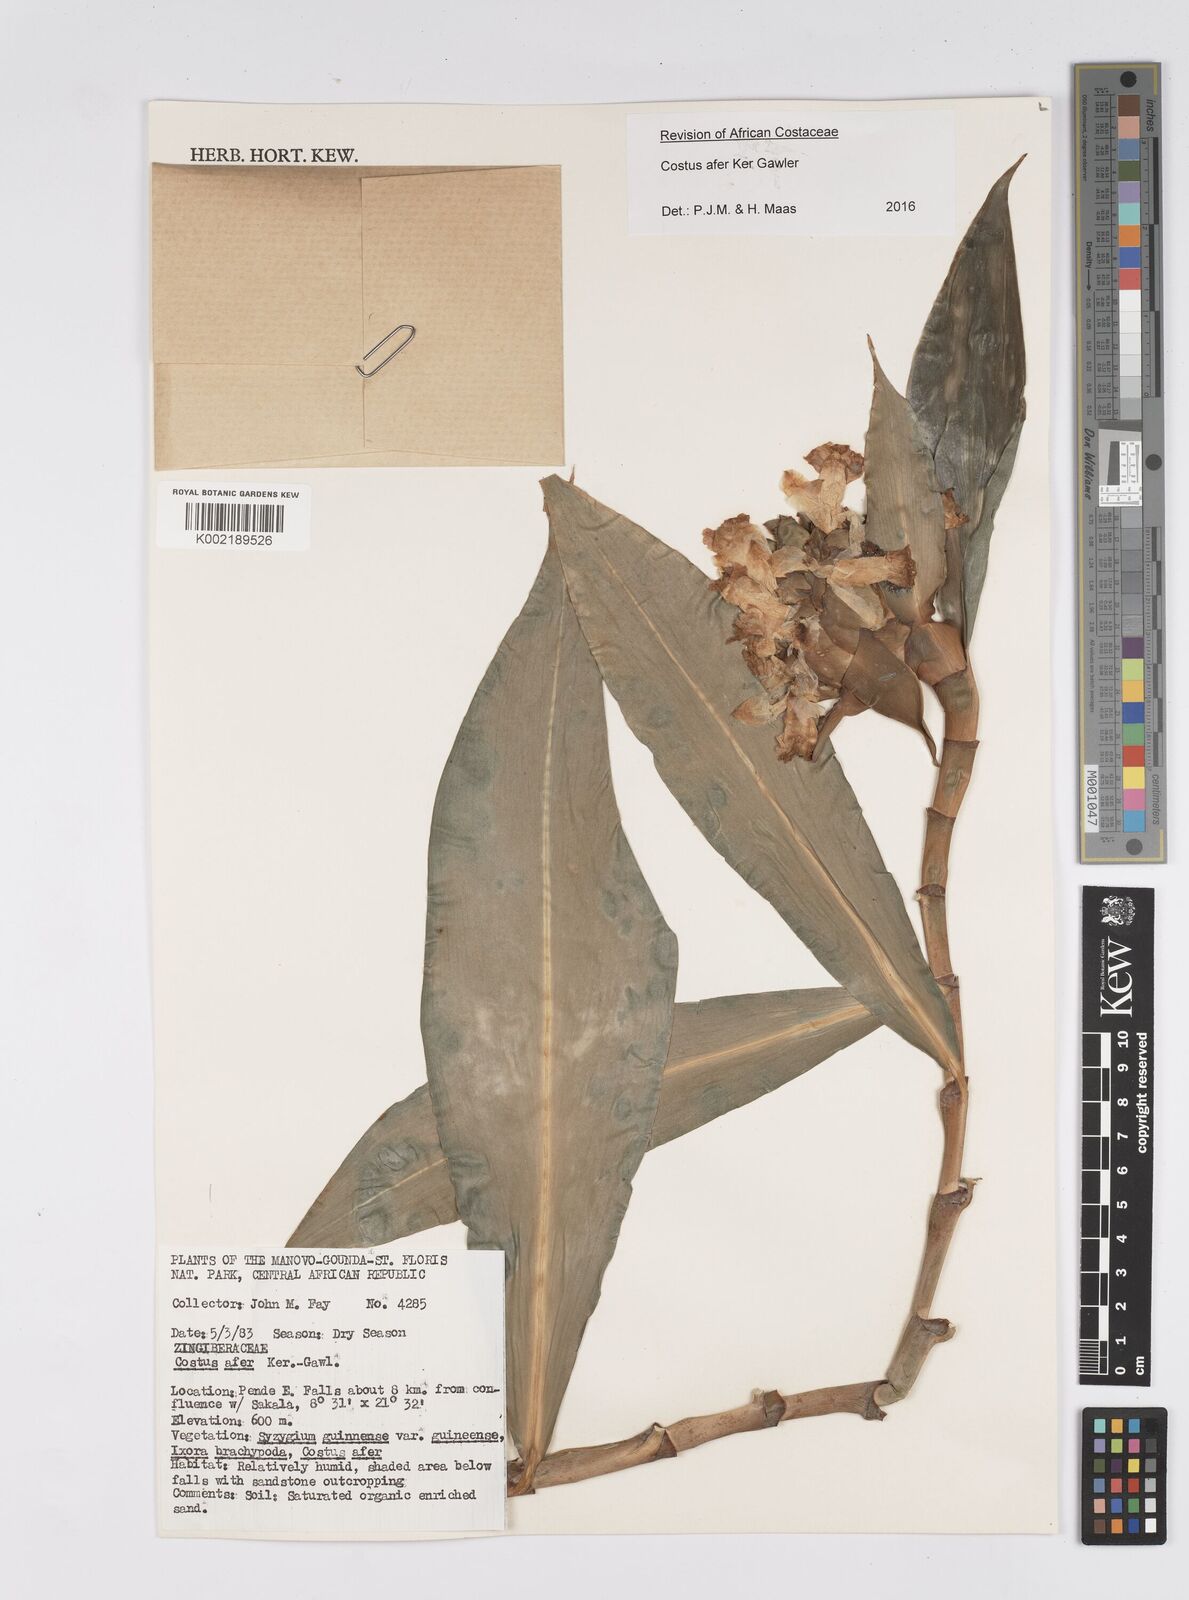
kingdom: Plantae
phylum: Tracheophyta
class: Liliopsida
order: Zingiberales
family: Costaceae
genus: Costus
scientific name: Costus afer
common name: Spiral-ginger
